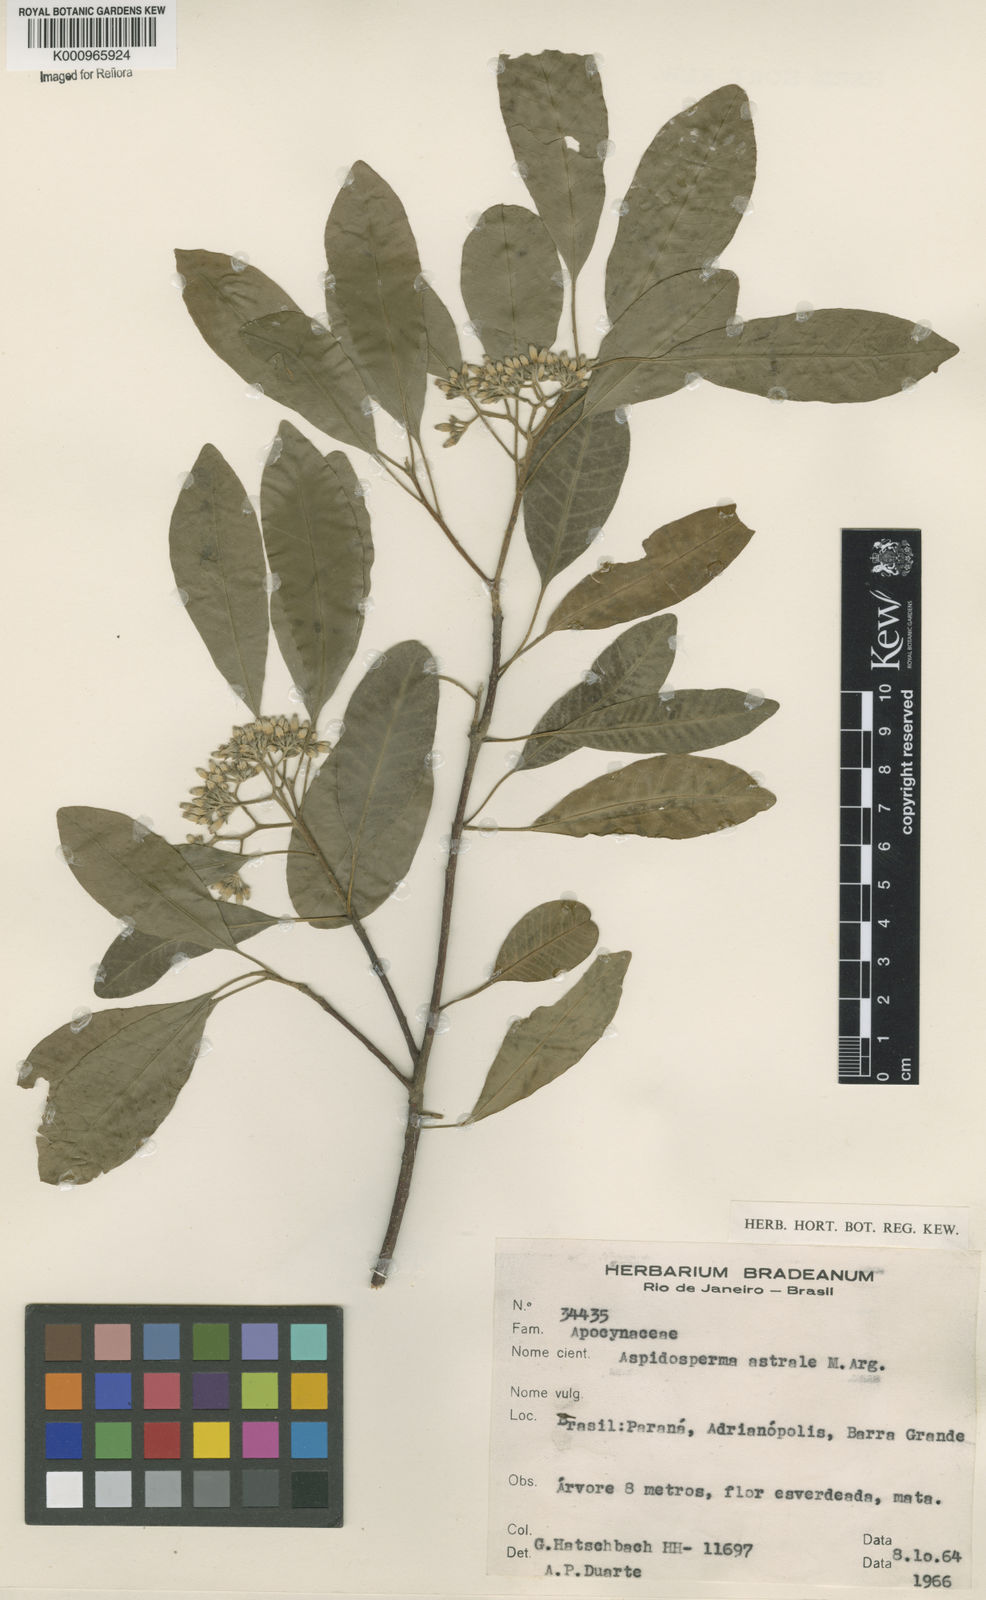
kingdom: Plantae
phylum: Tracheophyta
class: Magnoliopsida
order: Gentianales
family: Apocynaceae
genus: Aspidosperma
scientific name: Aspidosperma
